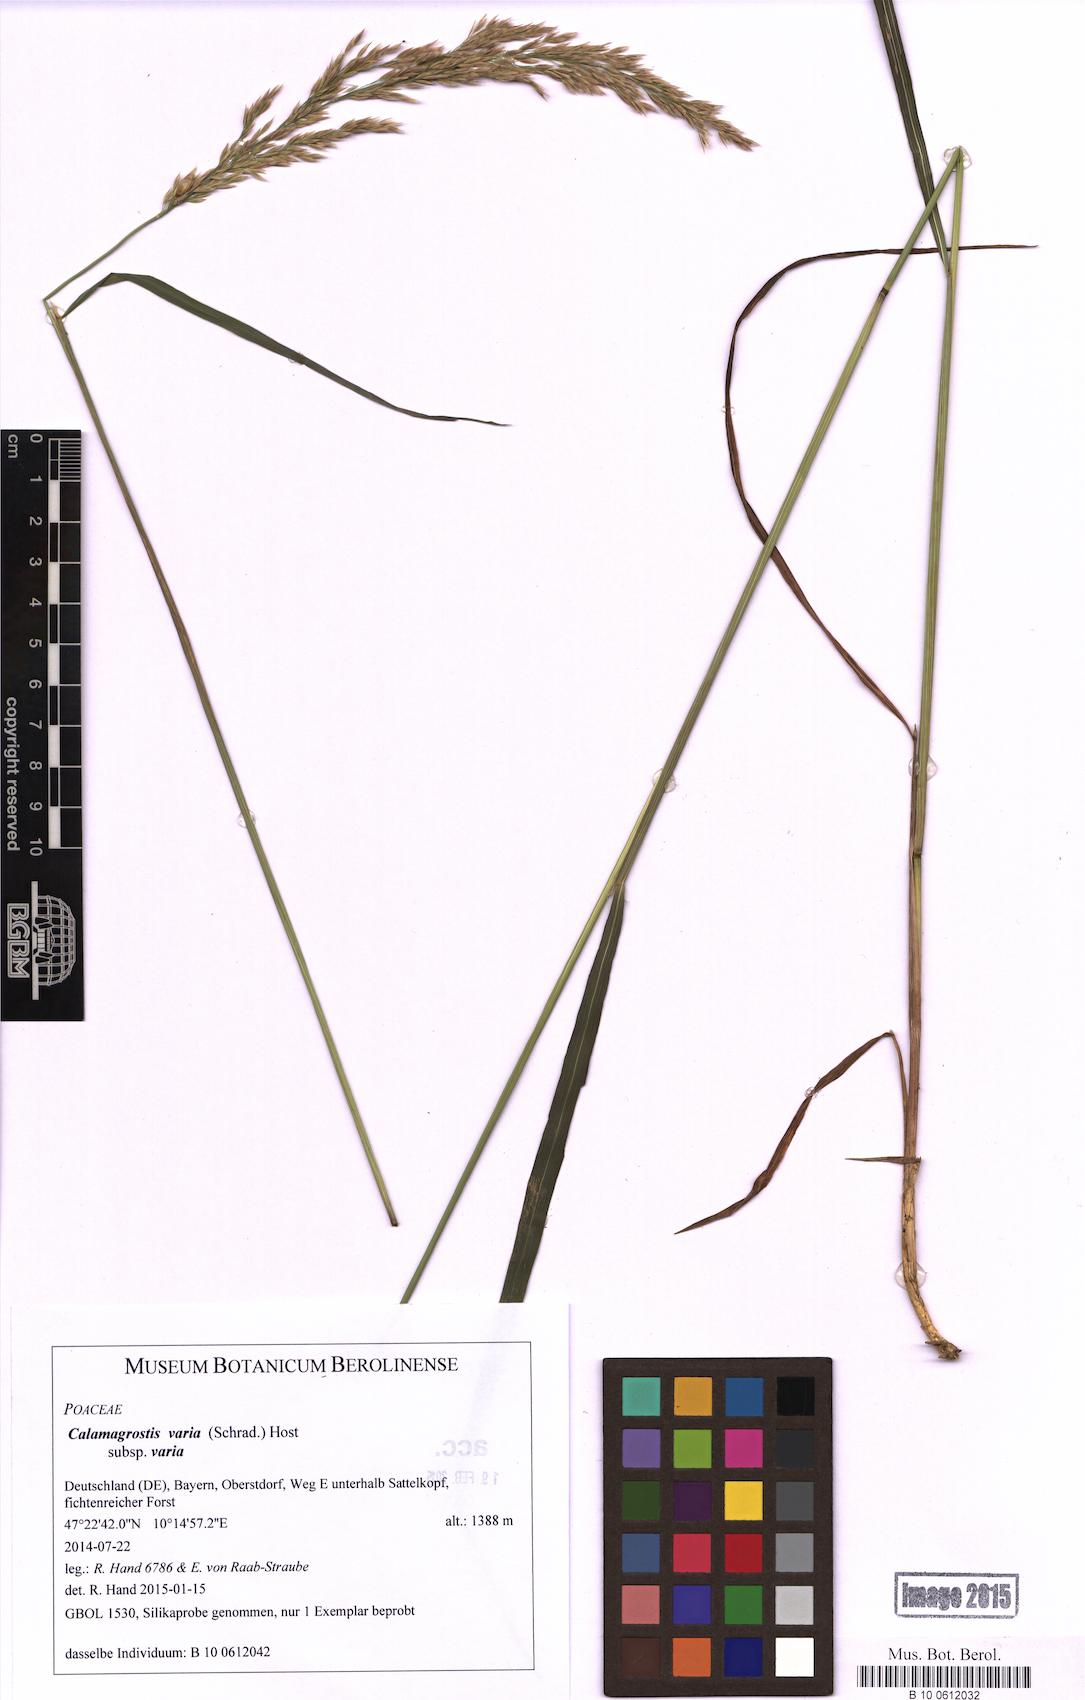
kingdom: Plantae
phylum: Tracheophyta
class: Liliopsida
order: Poales
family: Poaceae
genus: Calamagrostis
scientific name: Calamagrostis varia
